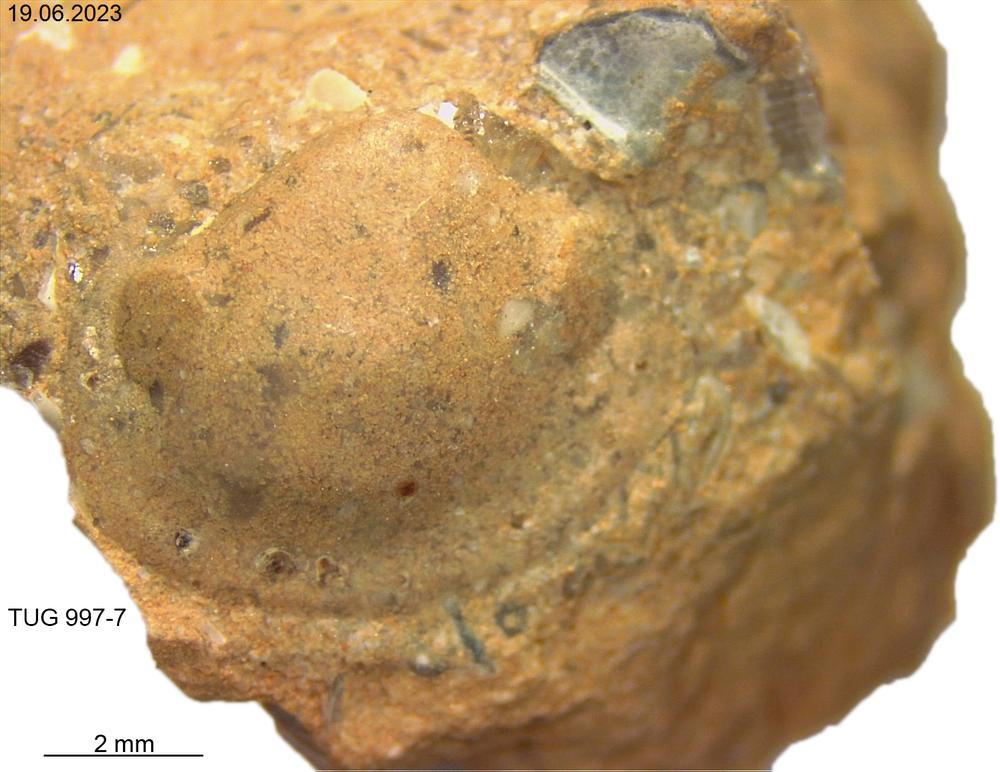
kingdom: Animalia
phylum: Mollusca
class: Bivalvia
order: Solemyida
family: Ctenodontidae
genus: Tancrediopsis
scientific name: Tancrediopsis
